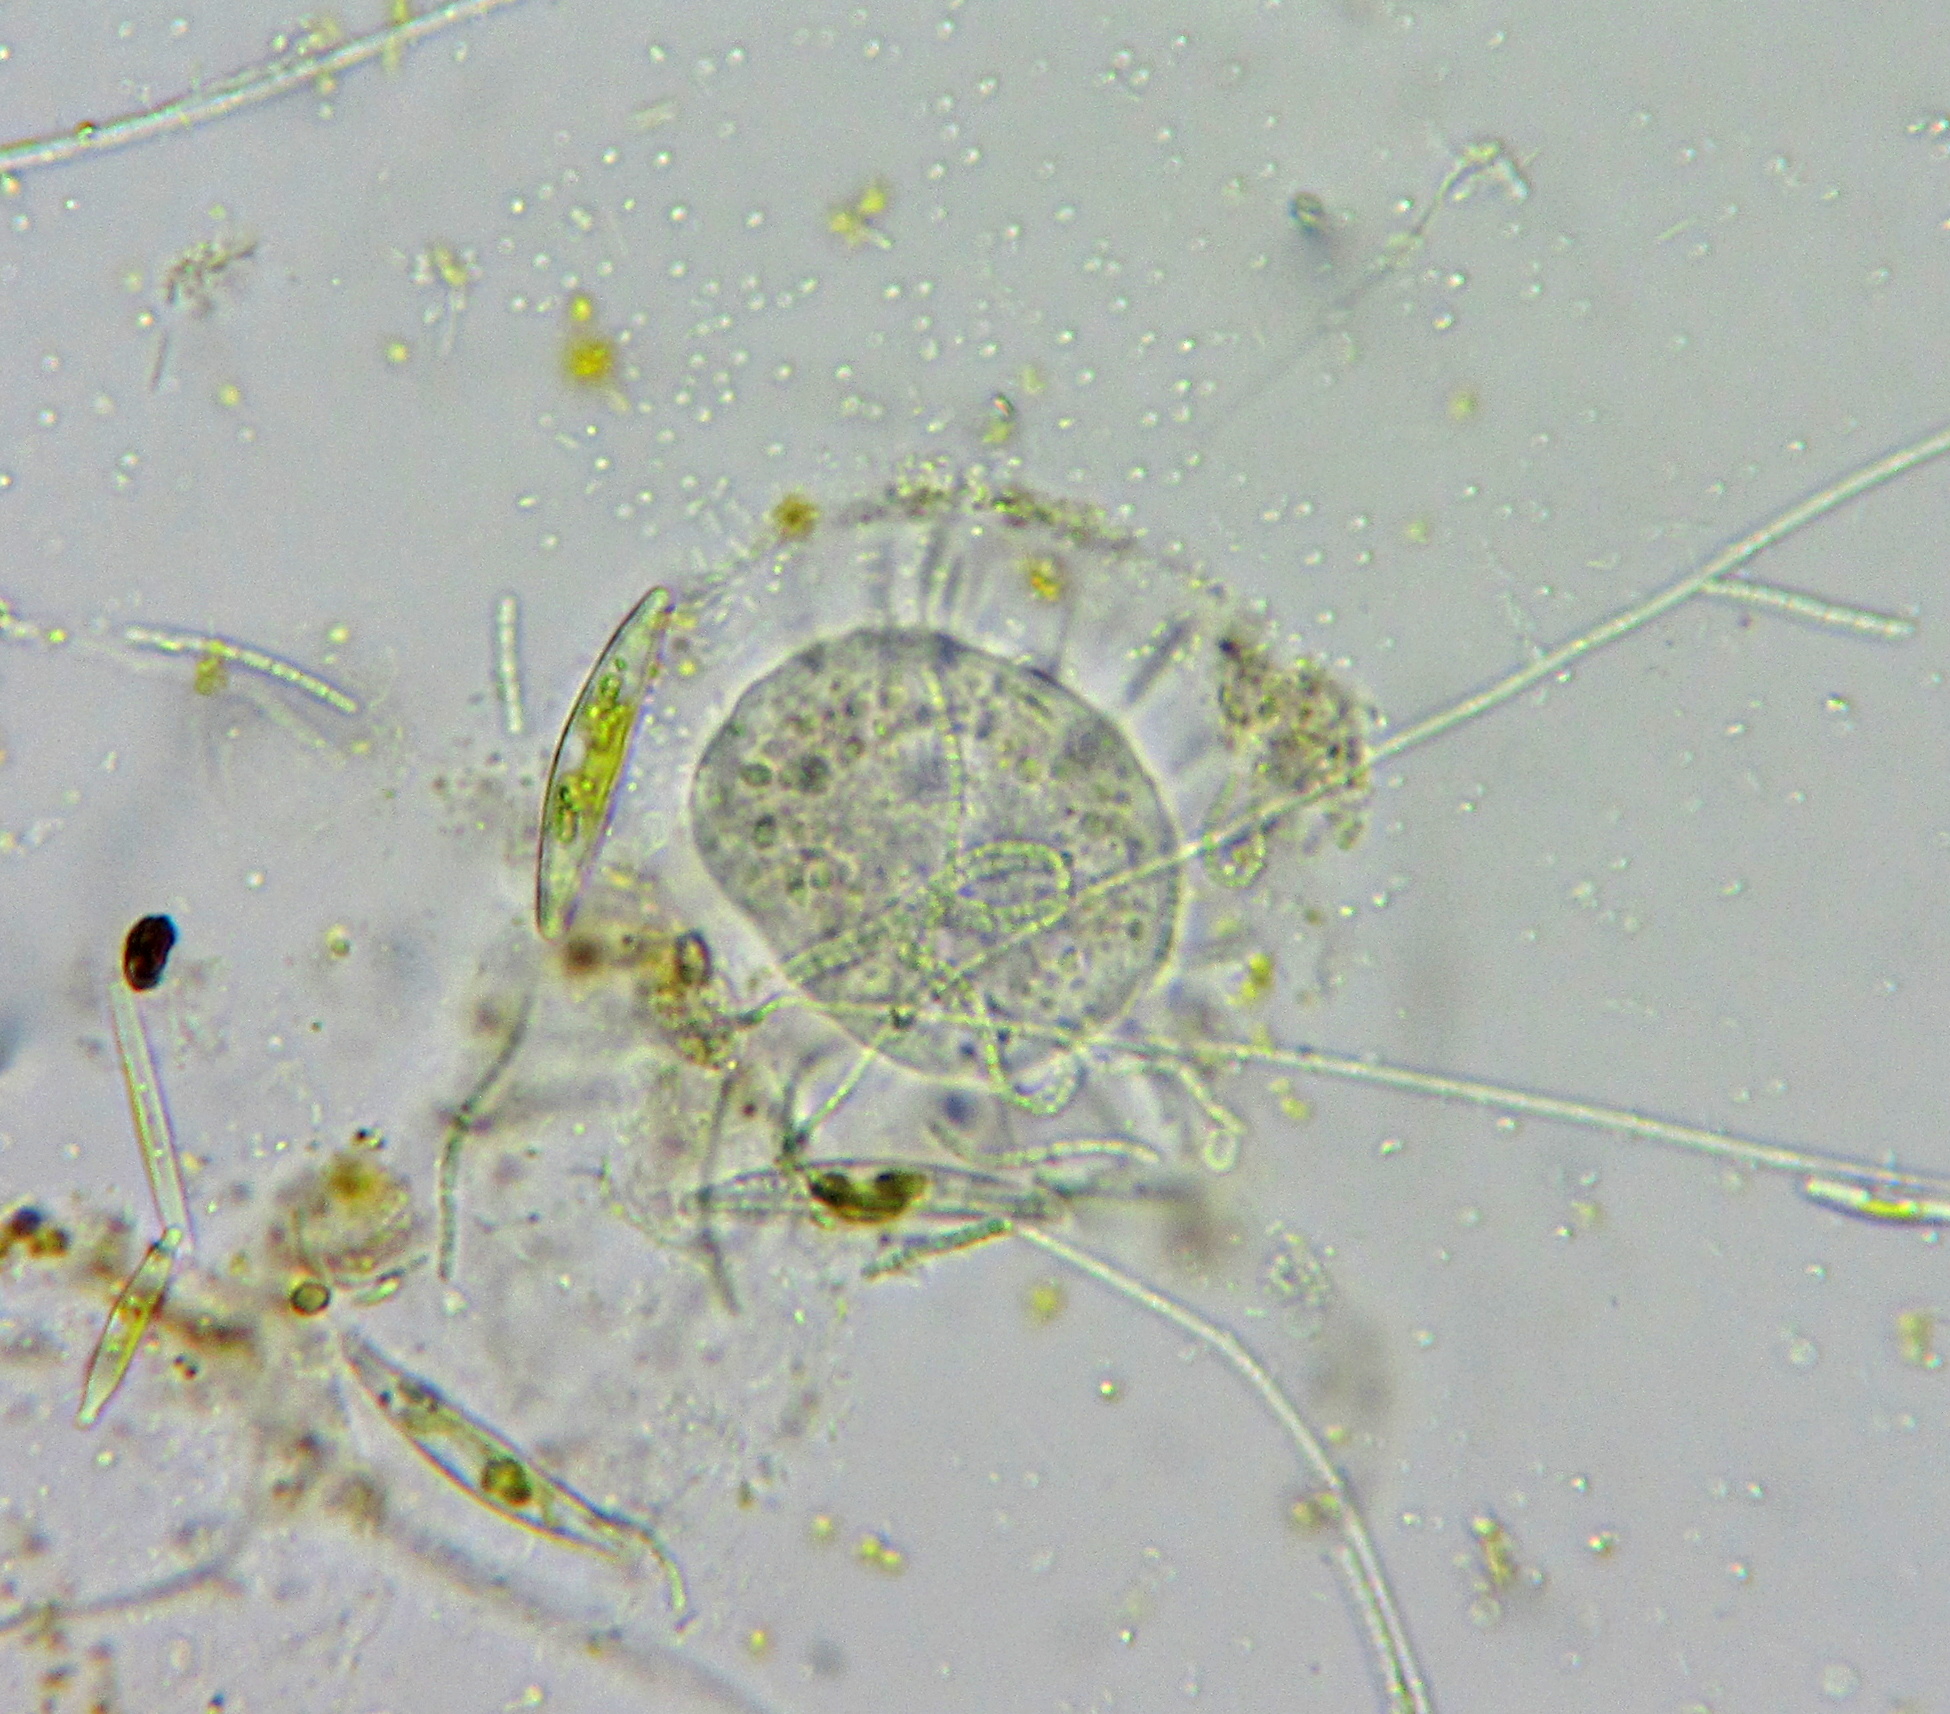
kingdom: Chromista
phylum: Ciliophora
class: Kinetofragminophora
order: Suctorida
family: Podophryidae
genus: Podophrya
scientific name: Podophrya
